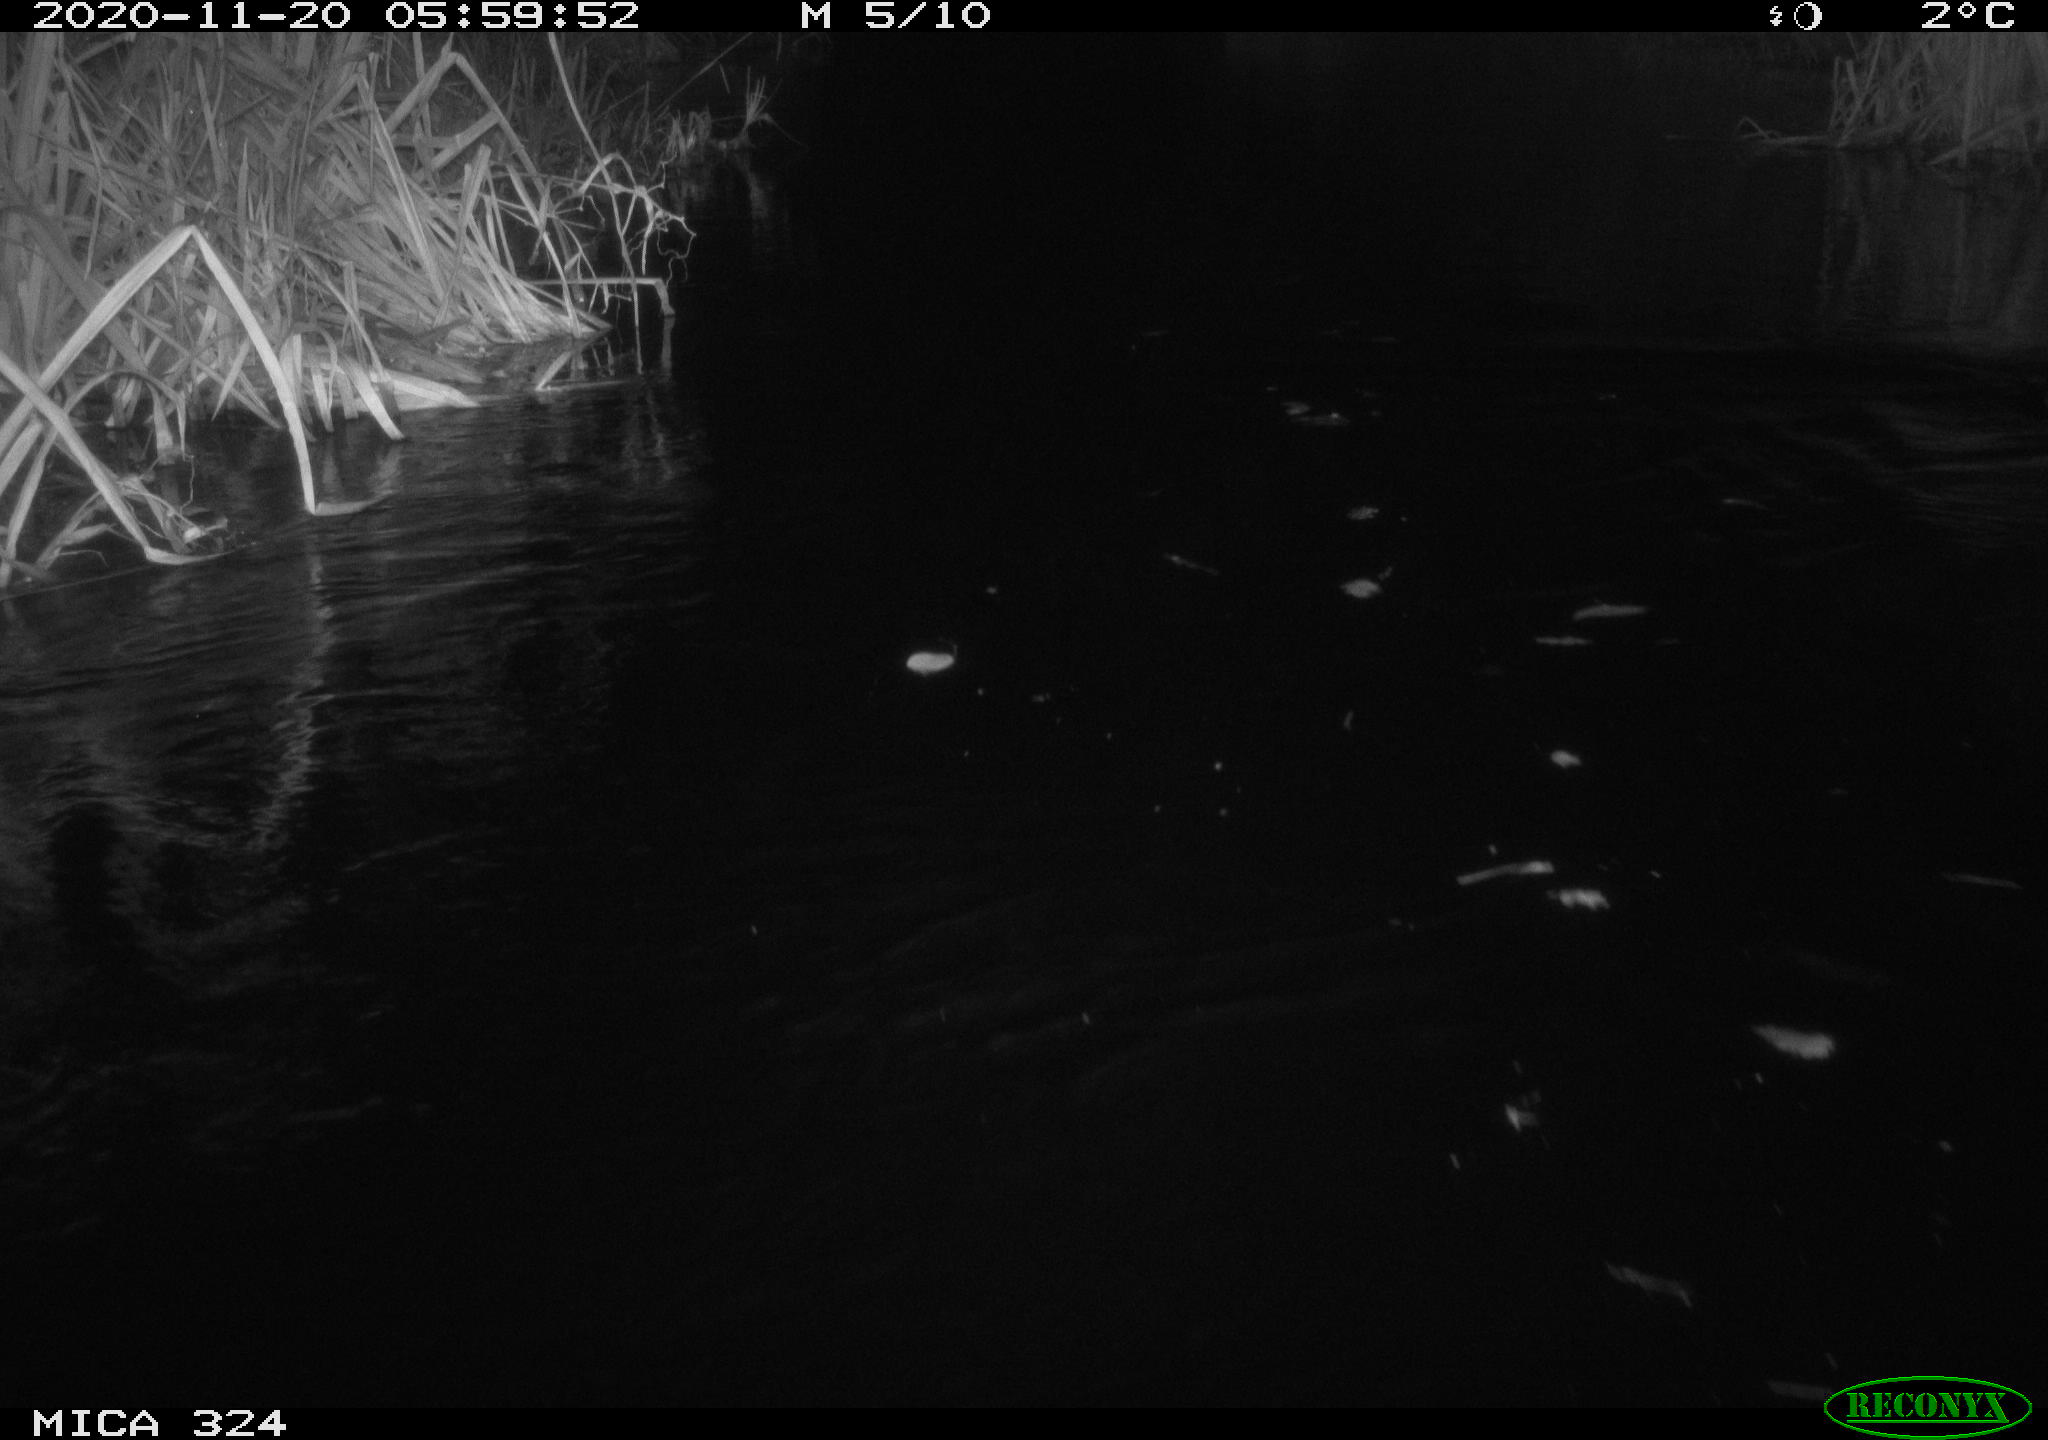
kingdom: Animalia
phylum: Chordata
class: Mammalia
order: Rodentia
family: Myocastoridae
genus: Myocastor
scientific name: Myocastor coypus
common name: Coypu
